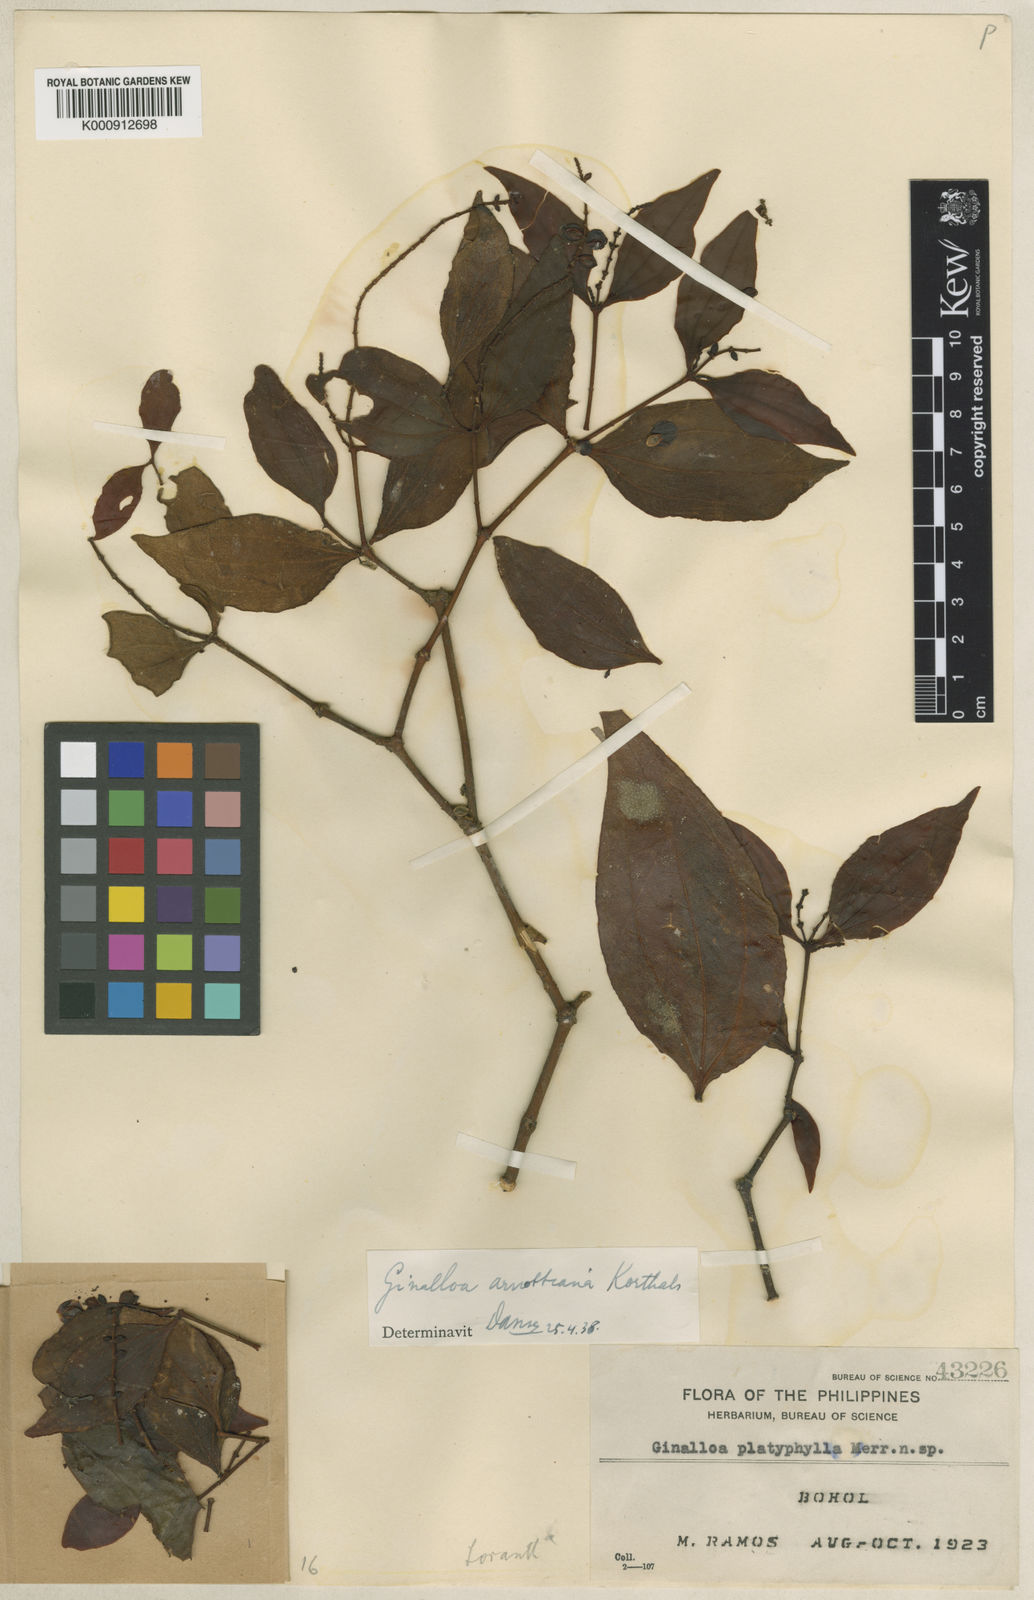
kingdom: Plantae
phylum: Tracheophyta
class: Magnoliopsida
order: Santalales
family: Viscaceae
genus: Ginalloa
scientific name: Ginalloa arnottiana
